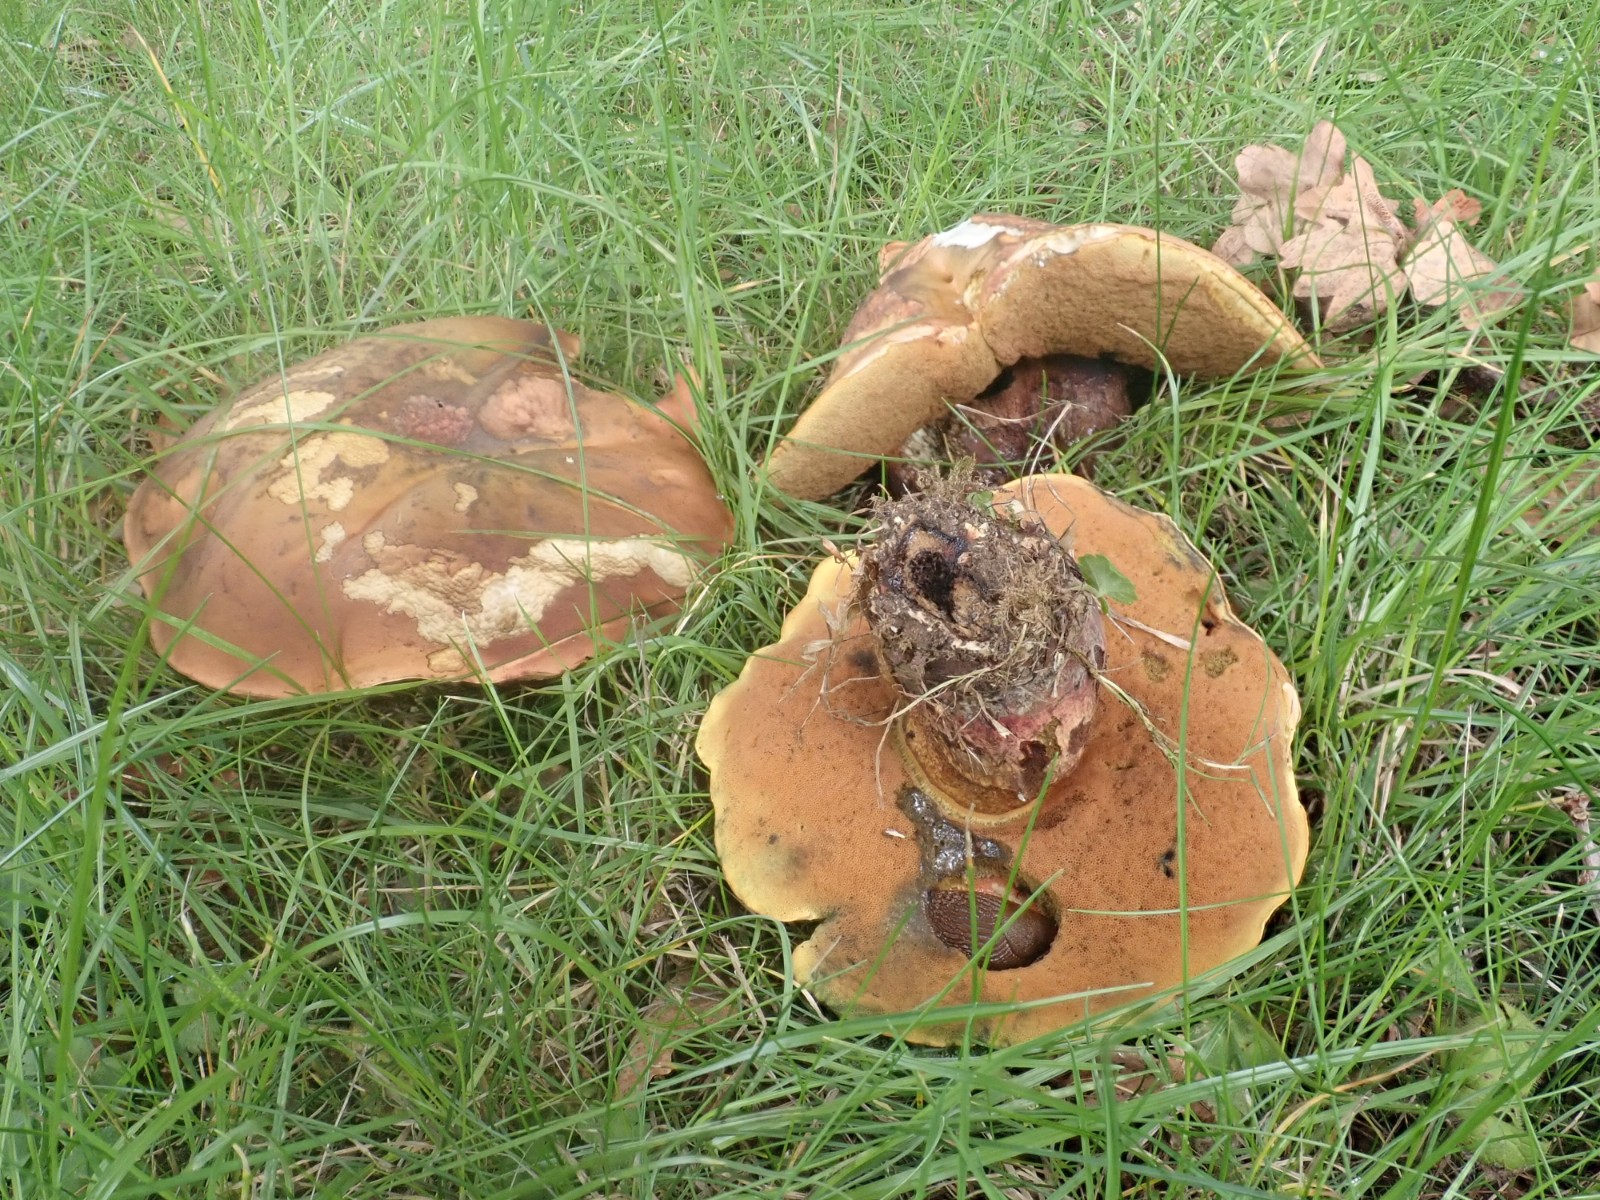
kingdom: Fungi
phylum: Basidiomycota
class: Agaricomycetes
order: Boletales
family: Boletaceae
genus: Suillellus
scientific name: Suillellus luridus
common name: netstokket indigorørhat
